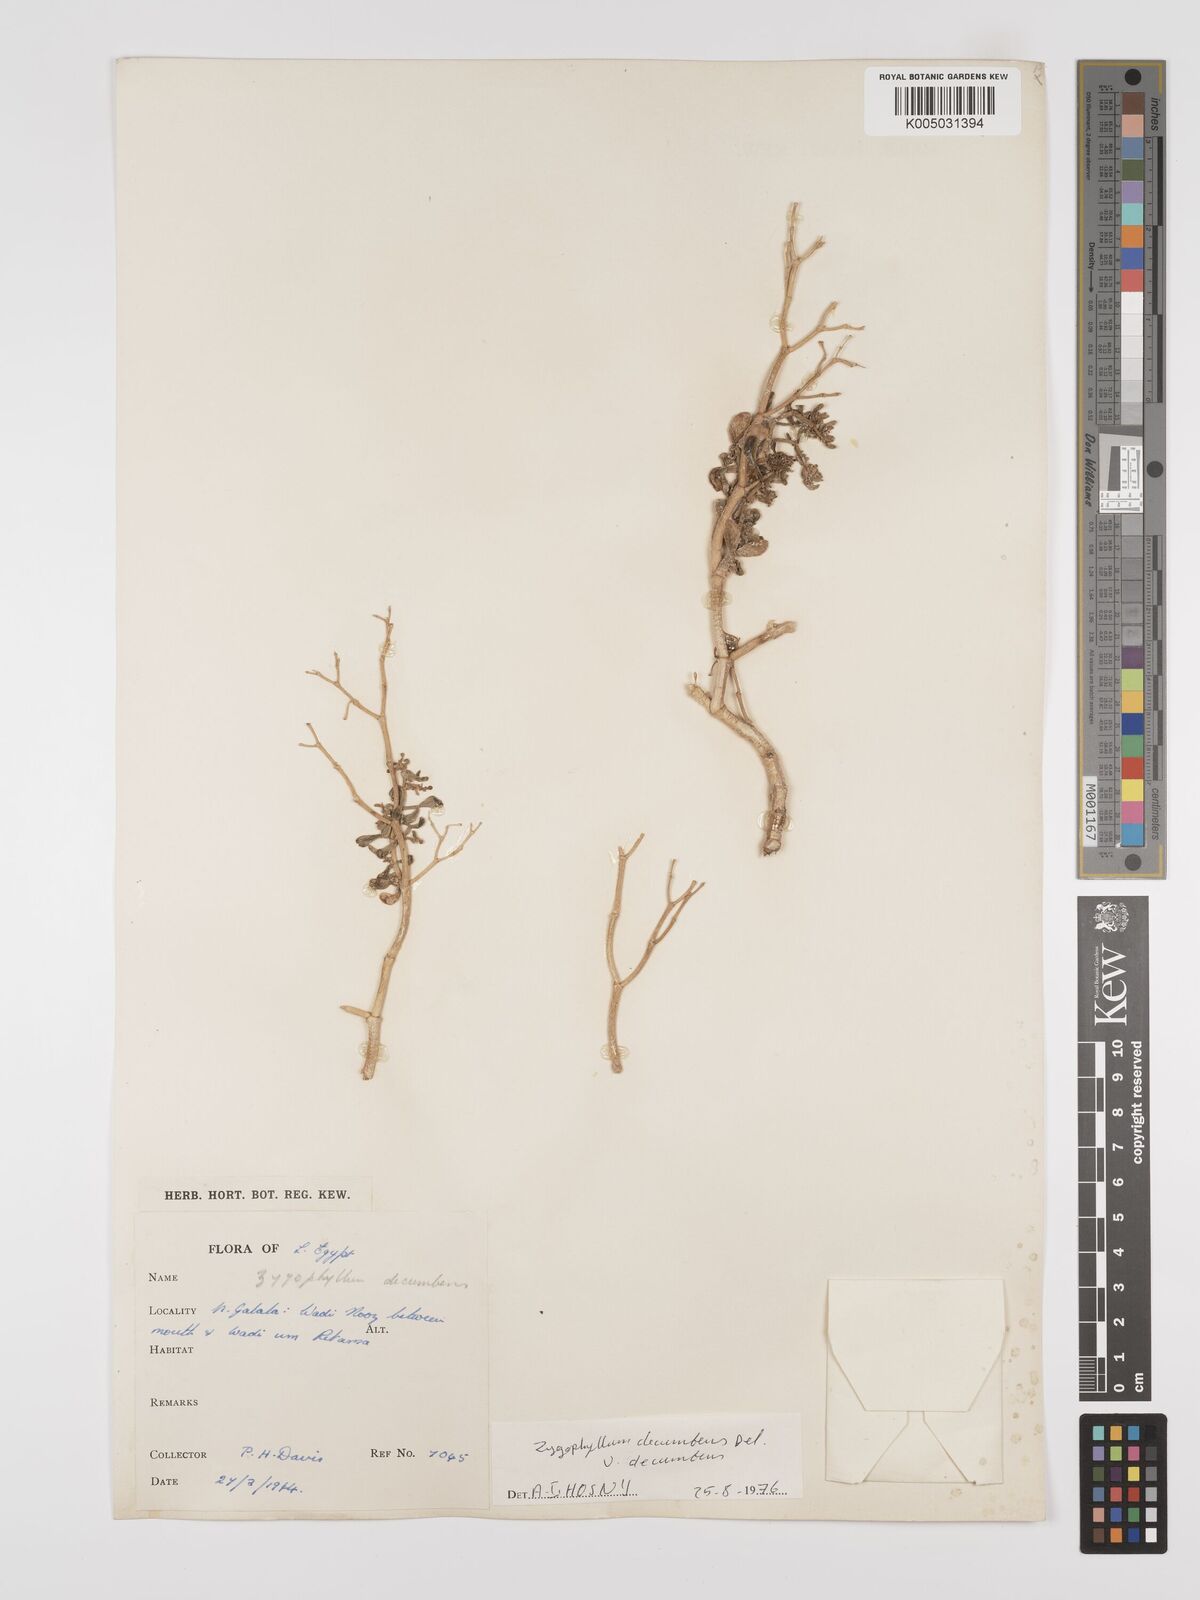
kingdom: Plantae
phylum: Tracheophyta
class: Magnoliopsida
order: Zygophyllales
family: Zygophyllaceae
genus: Tetraena
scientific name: Tetraena decumbens
